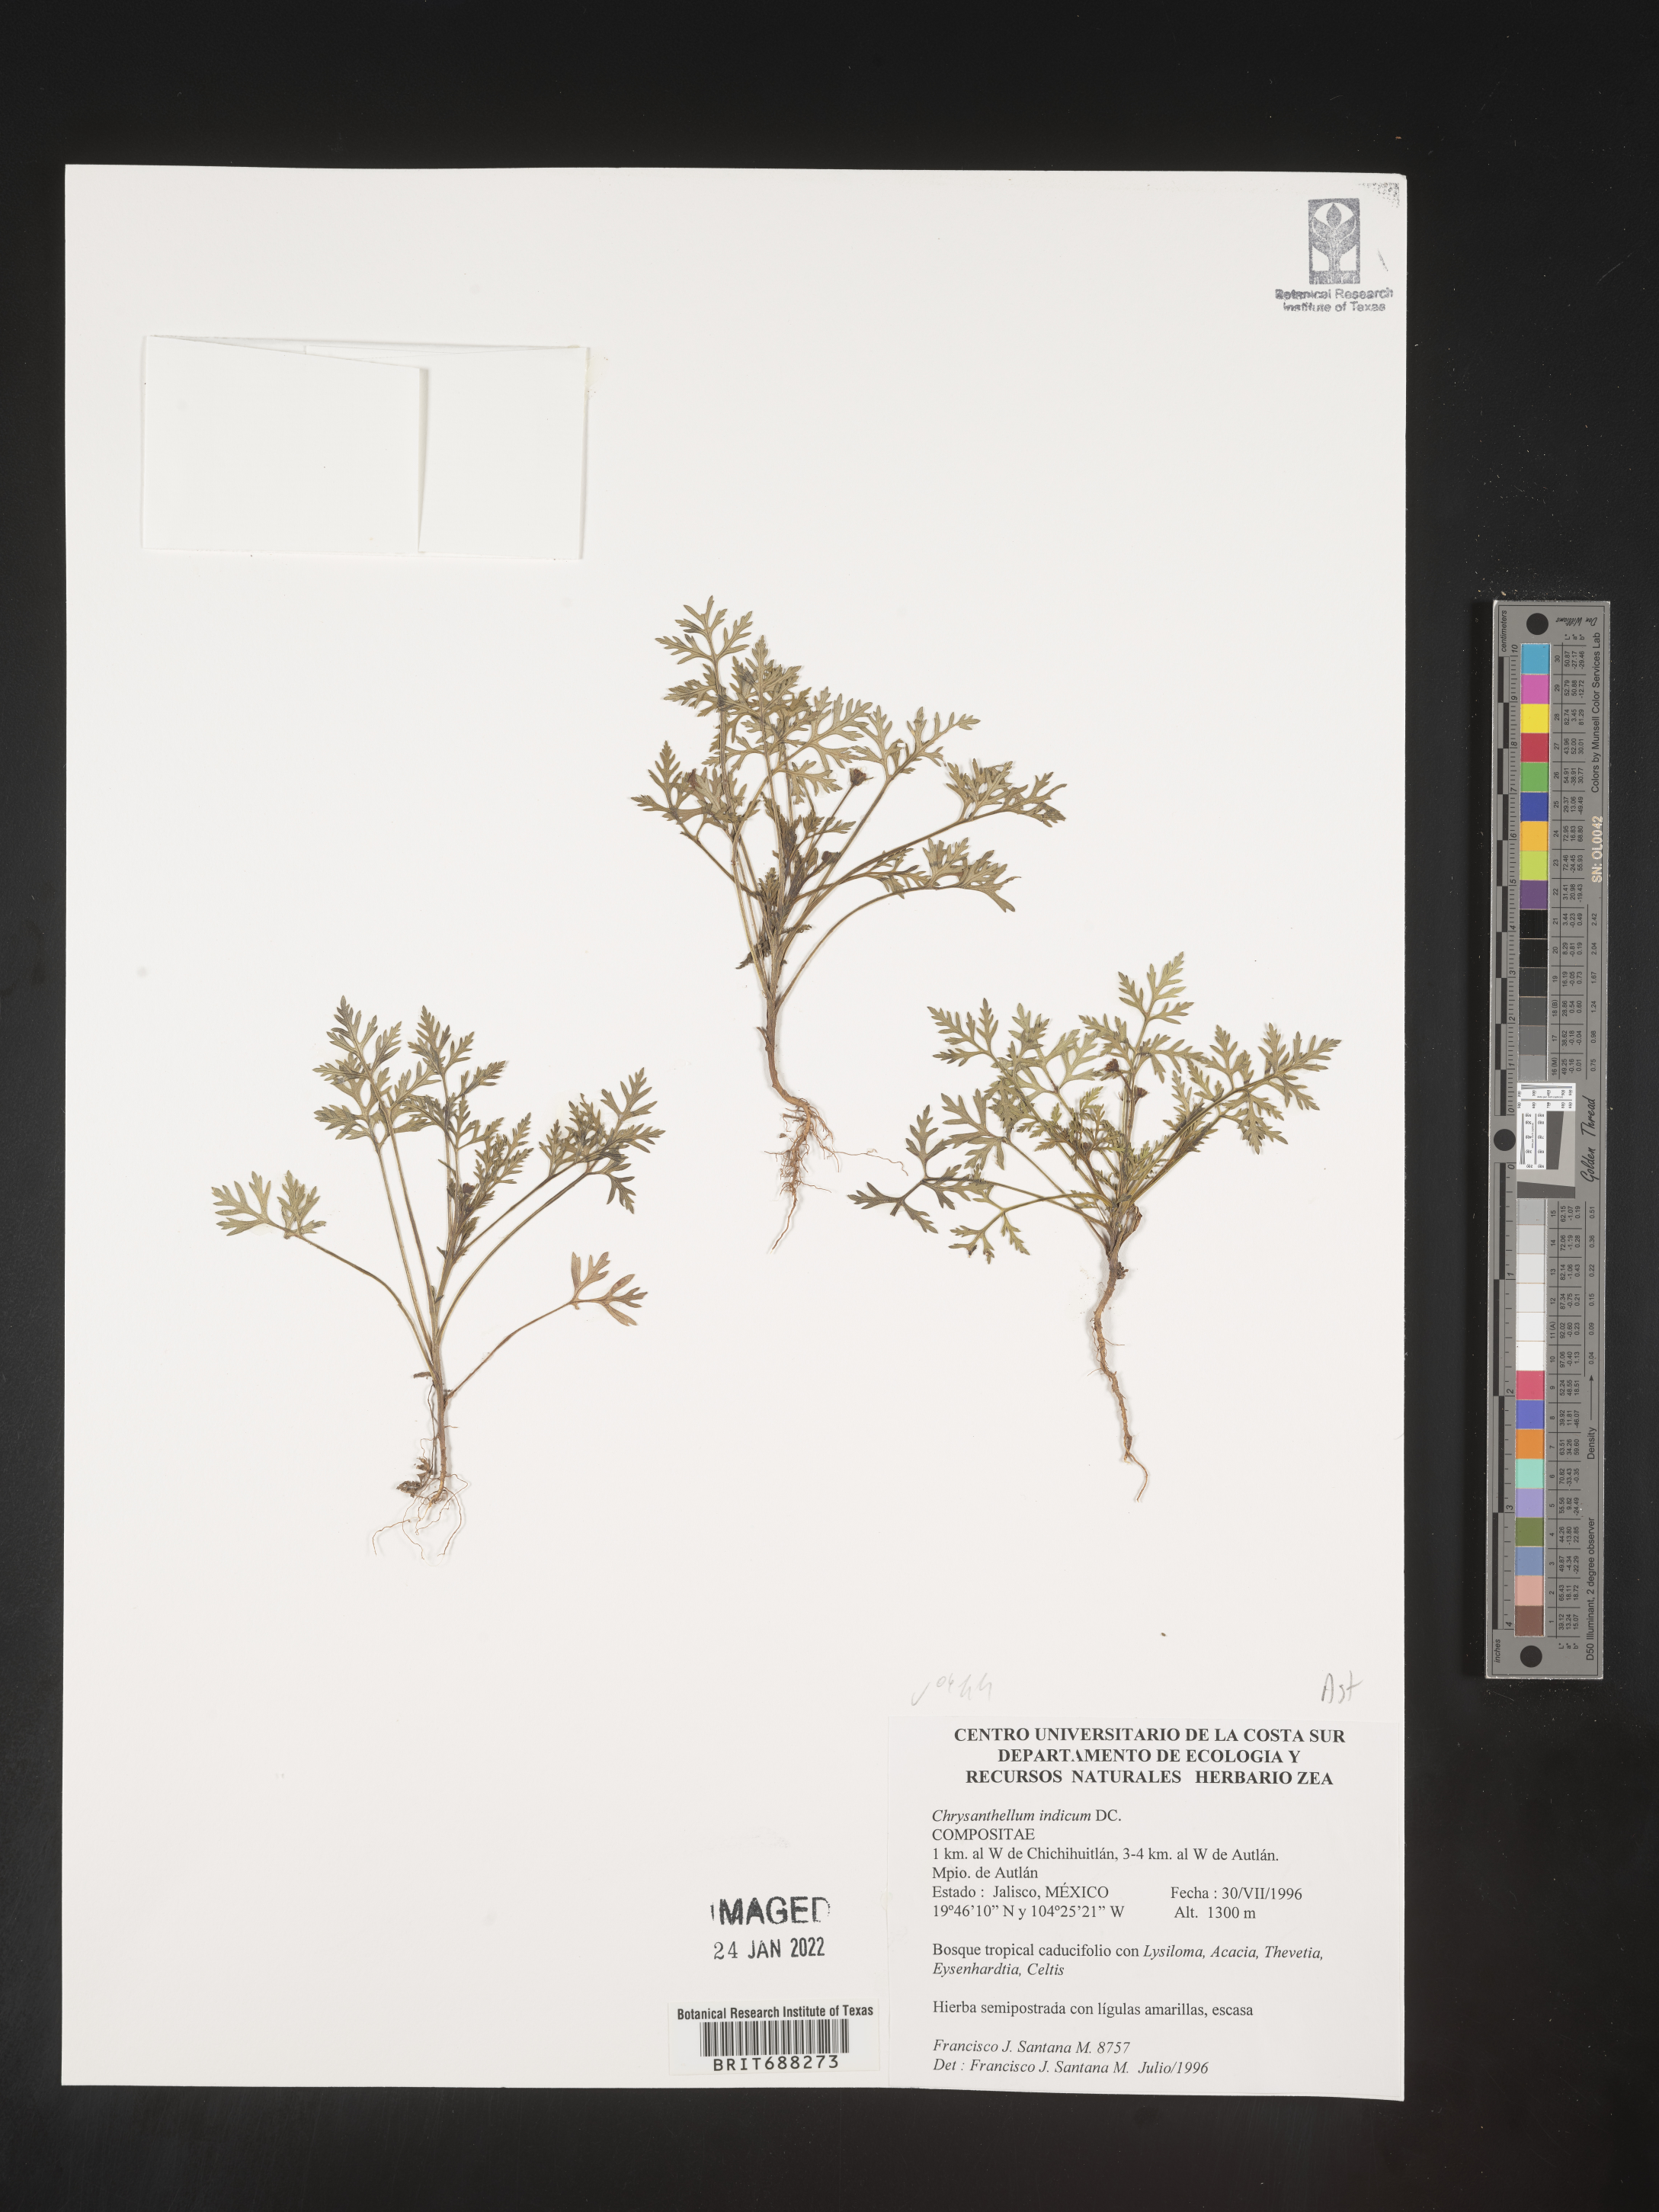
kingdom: Plantae
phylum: Tracheophyta
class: Magnoliopsida
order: Asterales
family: Asteraceae
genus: Chrysanthellum
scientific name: Chrysanthellum
